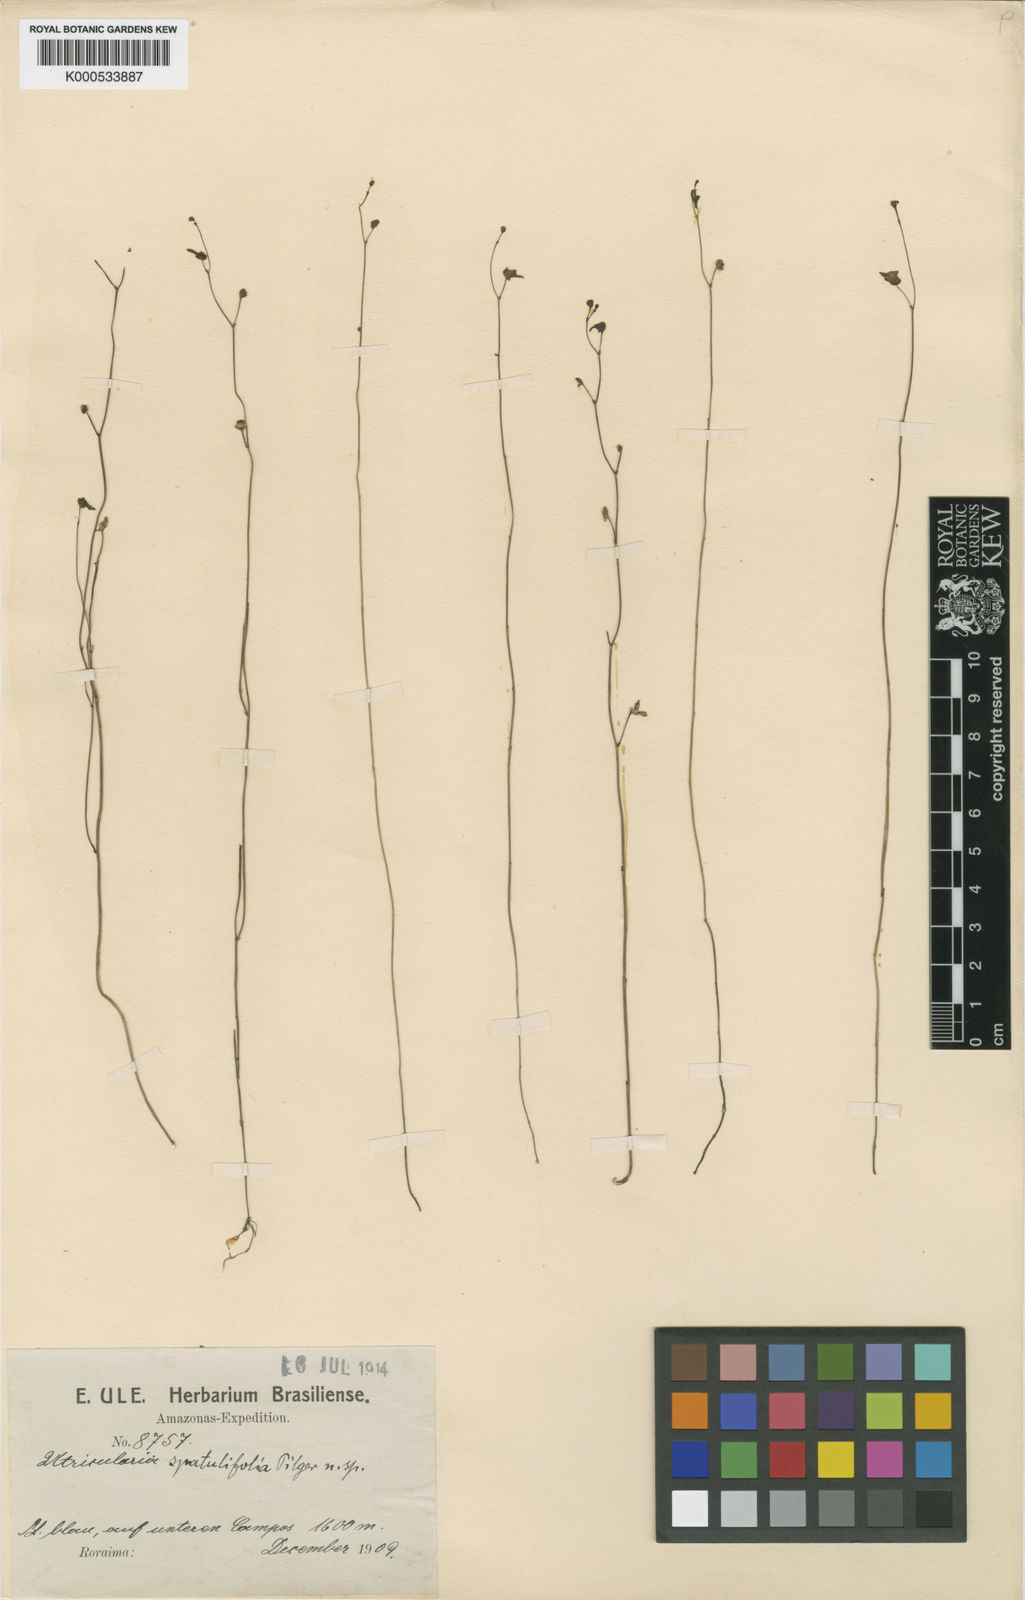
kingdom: Plantae
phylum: Tracheophyta
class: Magnoliopsida
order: Lamiales
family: Lentibulariaceae
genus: Utricularia
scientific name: Utricularia amethystina
